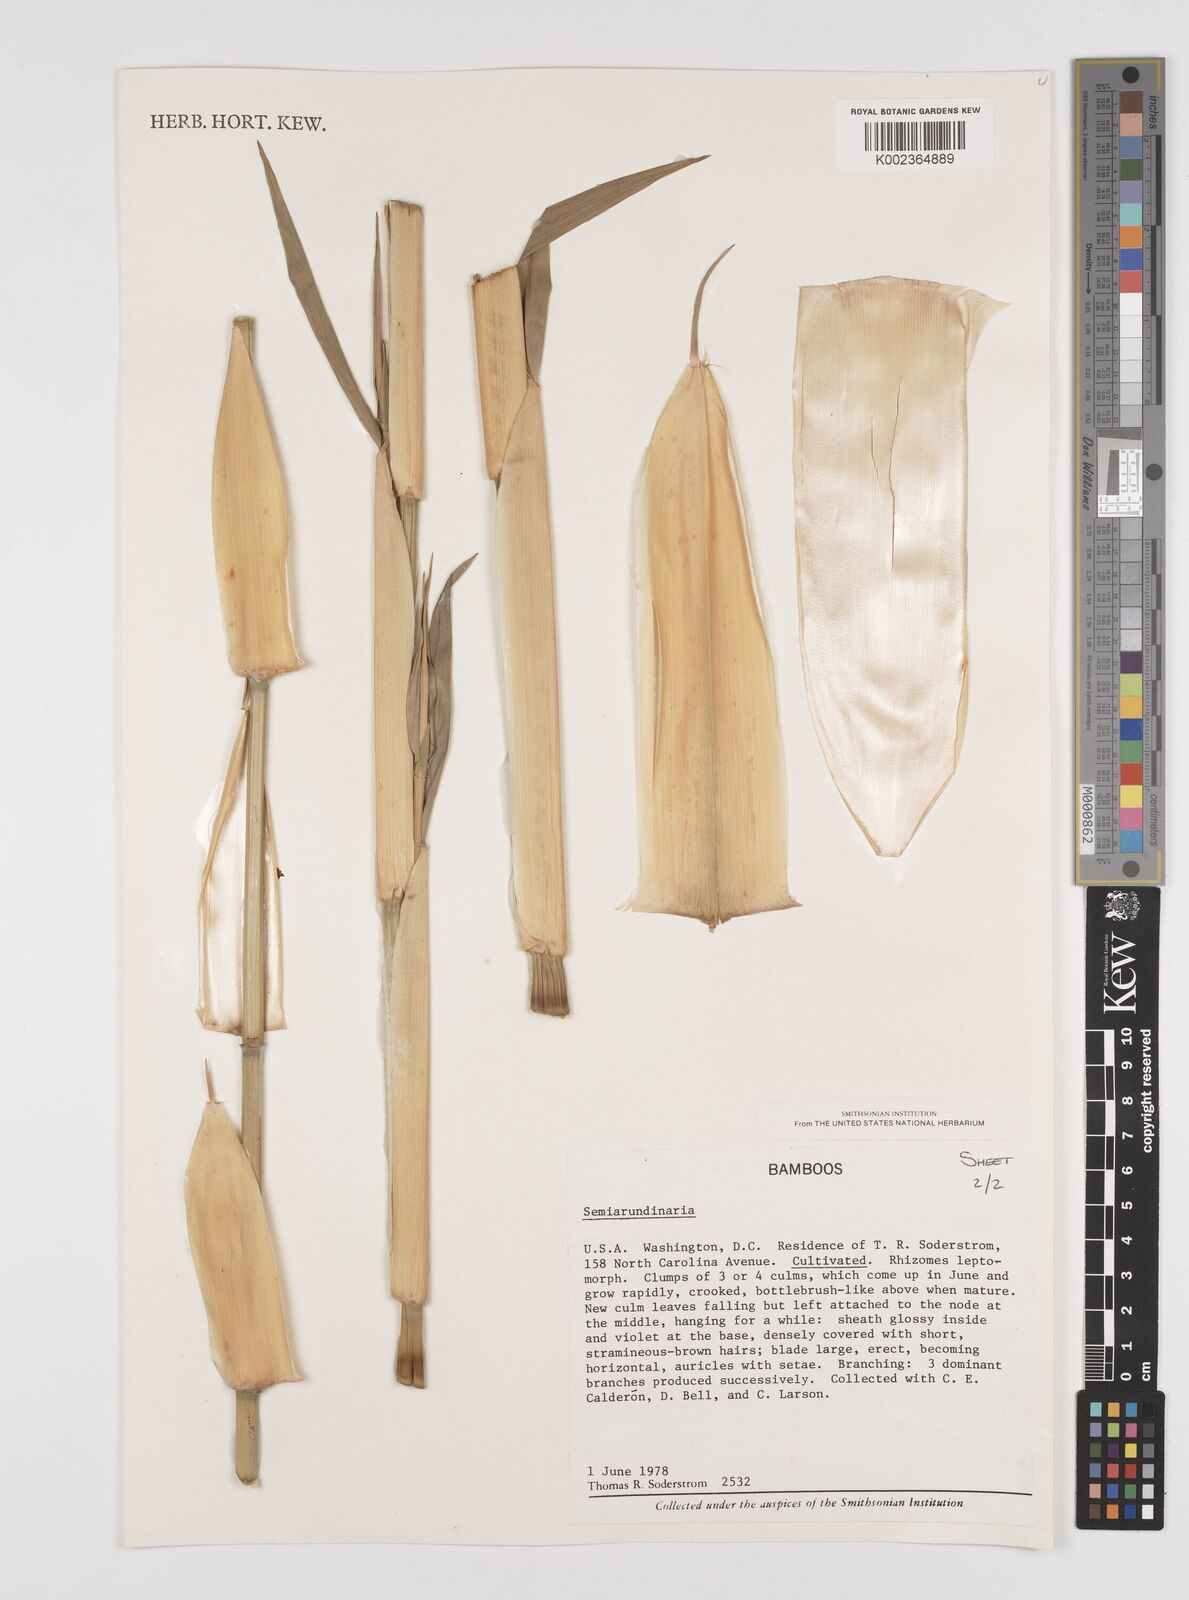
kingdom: Plantae
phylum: Tracheophyta
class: Liliopsida
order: Poales
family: Poaceae
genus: Semiarundinaria
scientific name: Semiarundinaria
